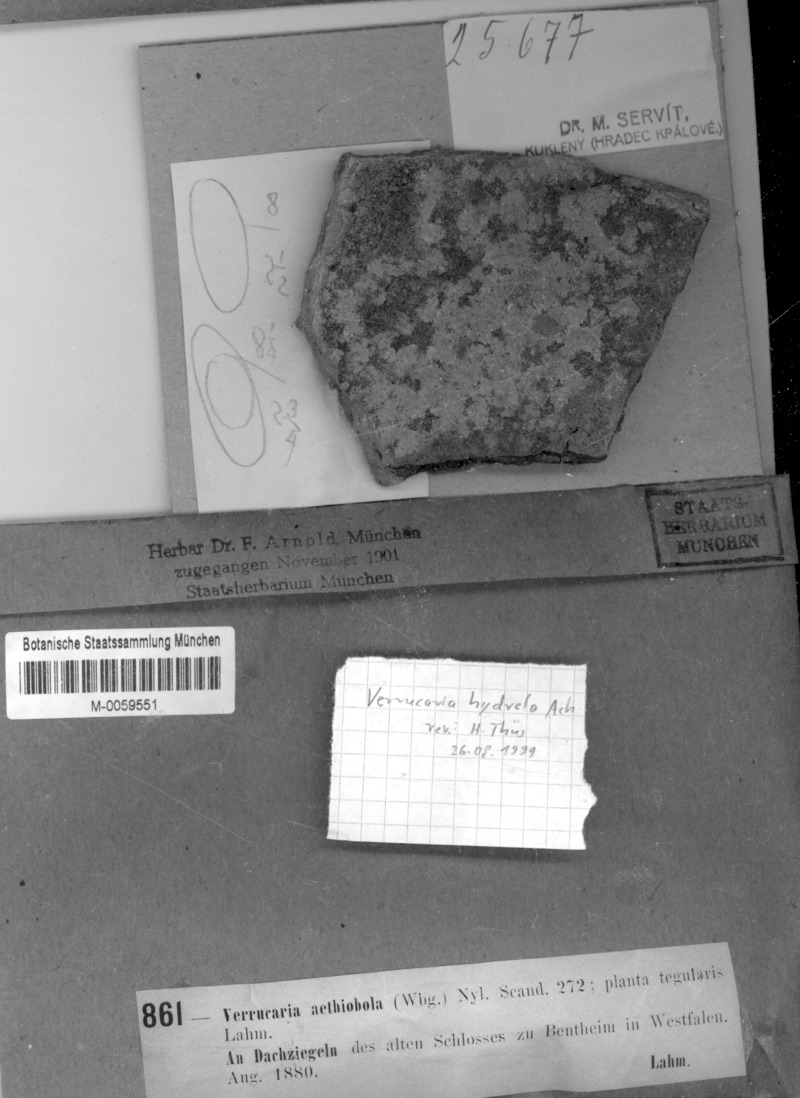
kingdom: Fungi
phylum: Ascomycota
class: Eurotiomycetes
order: Verrucariales
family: Verrucariaceae
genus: Verrucaria
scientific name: Verrucaria elaeina
